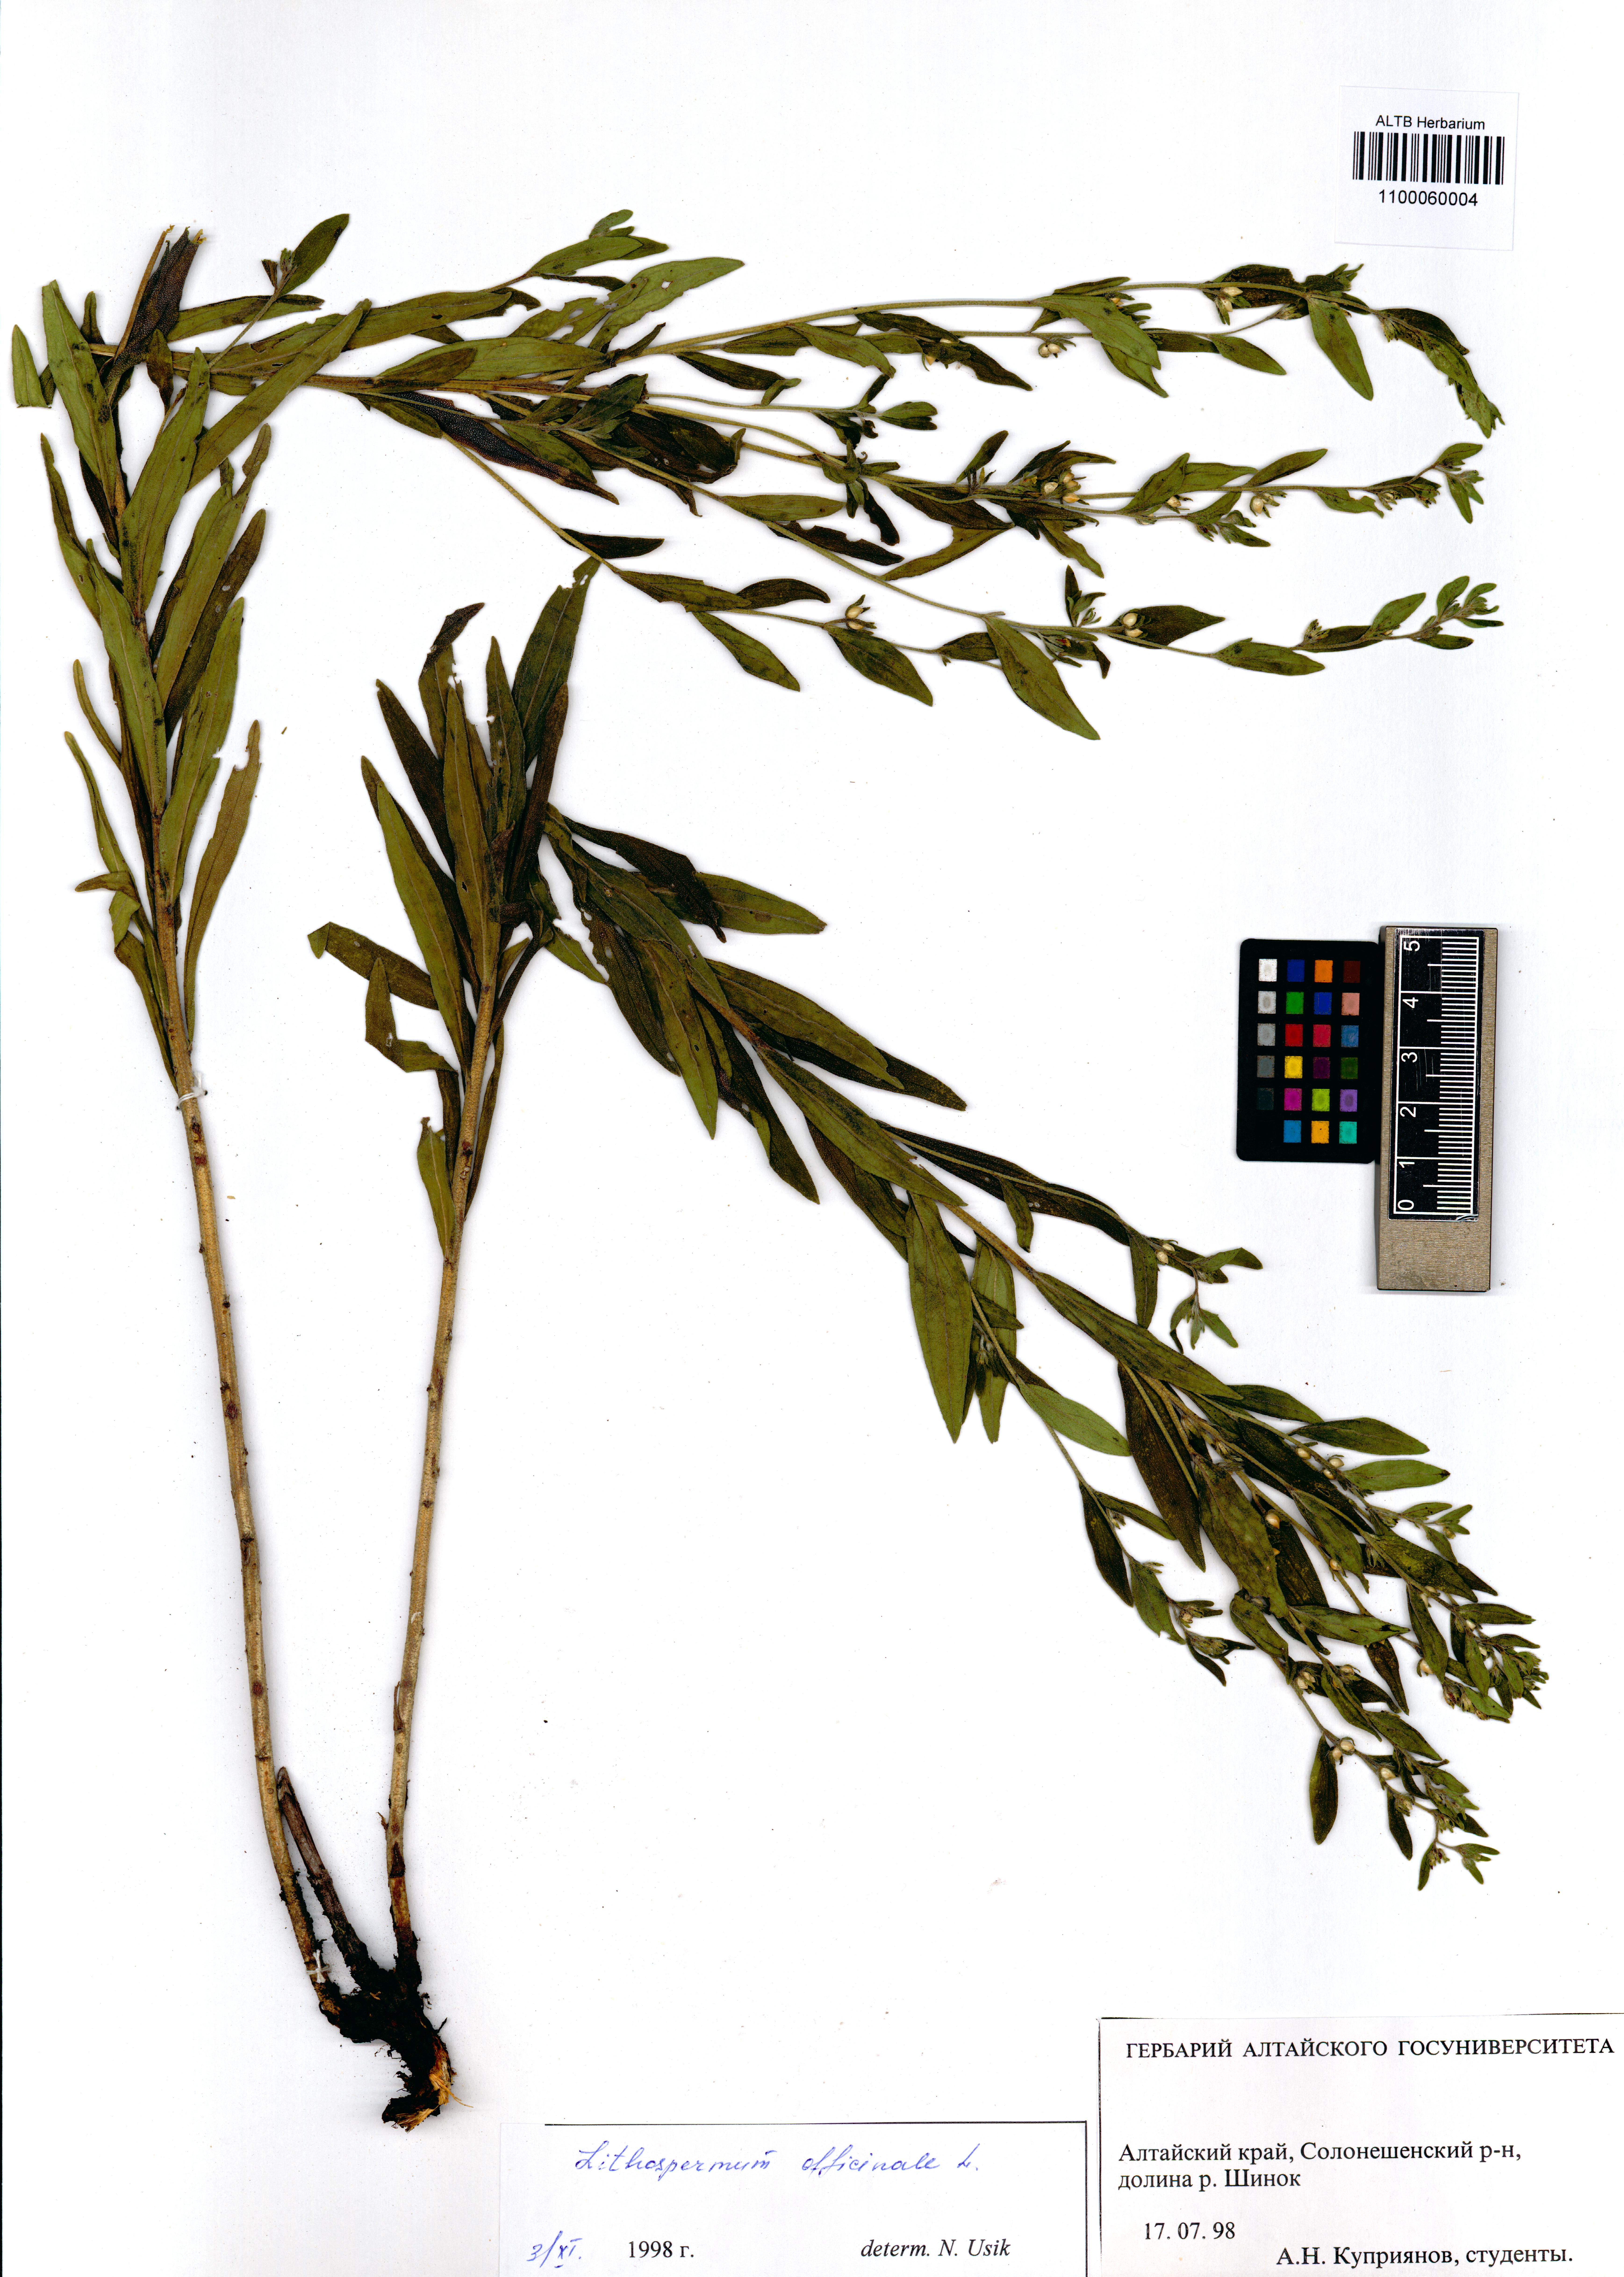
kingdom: Plantae
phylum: Tracheophyta
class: Magnoliopsida
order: Boraginales
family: Boraginaceae
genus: Lithospermum
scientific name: Lithospermum officinale
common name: Common gromwell
